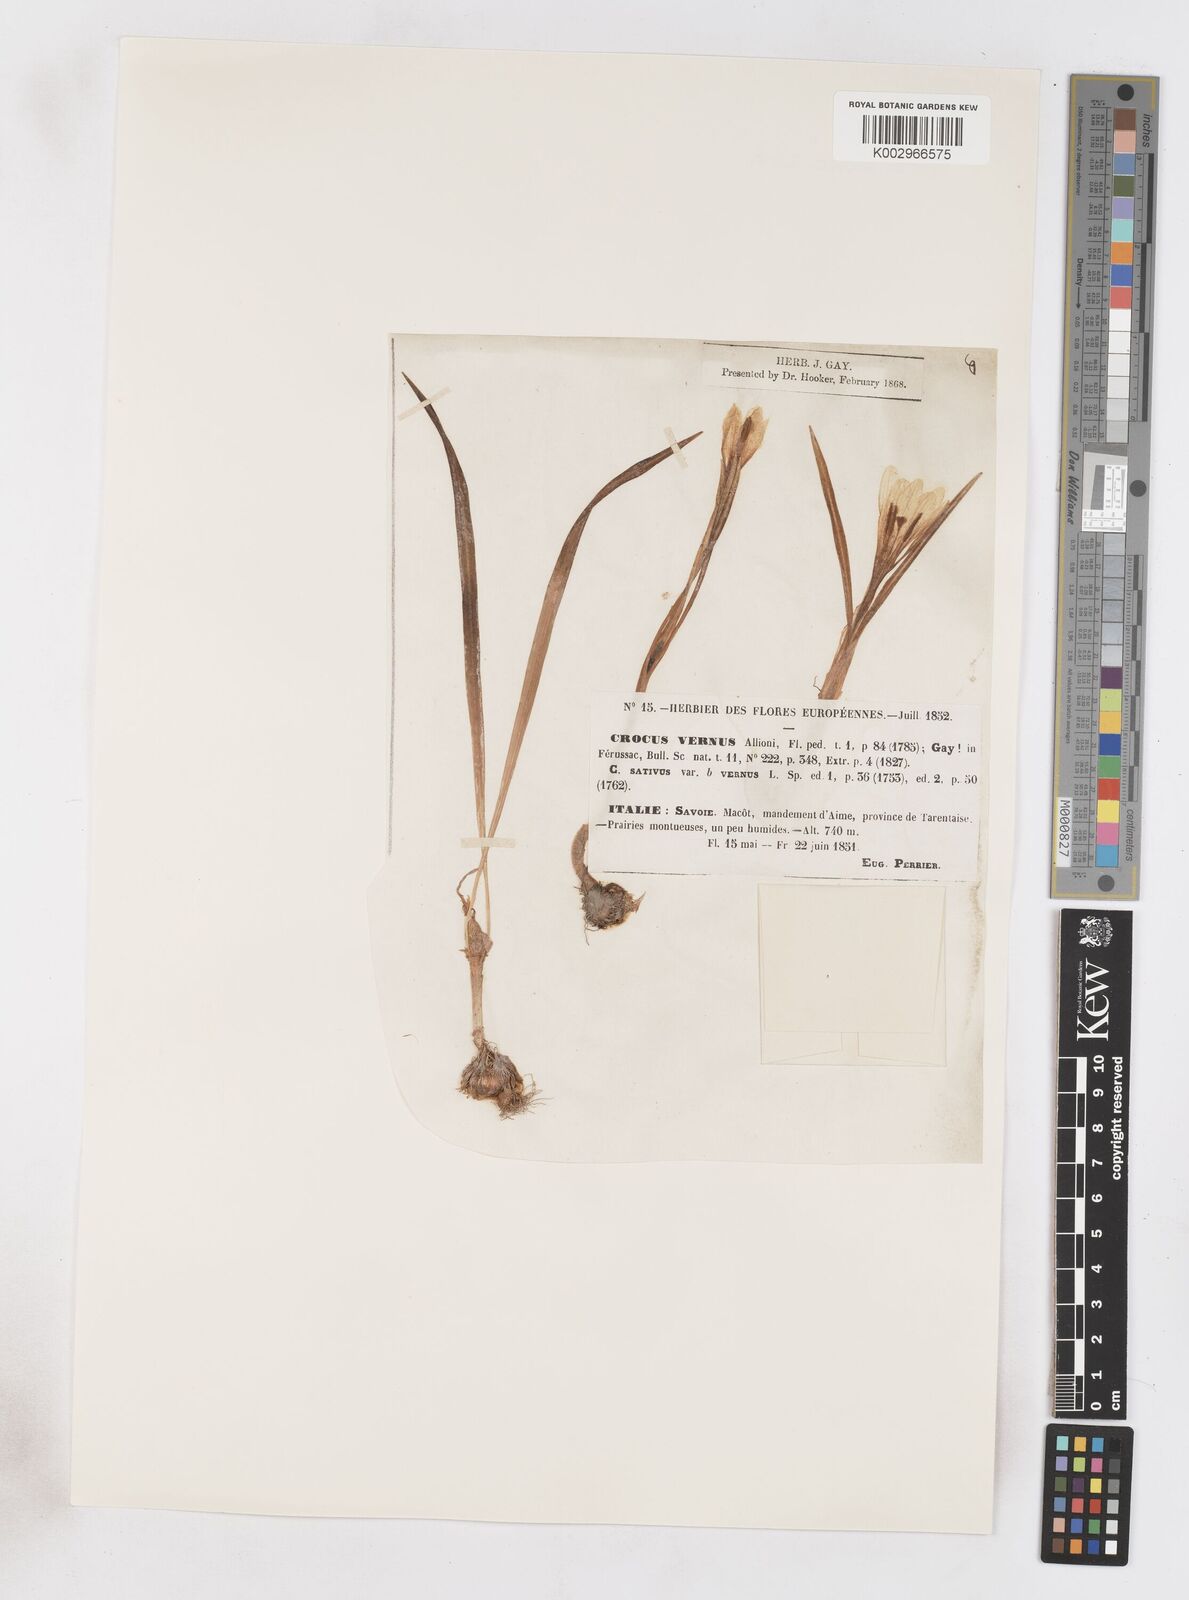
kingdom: Plantae
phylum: Tracheophyta
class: Liliopsida
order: Asparagales
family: Iridaceae
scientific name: Iridaceae
